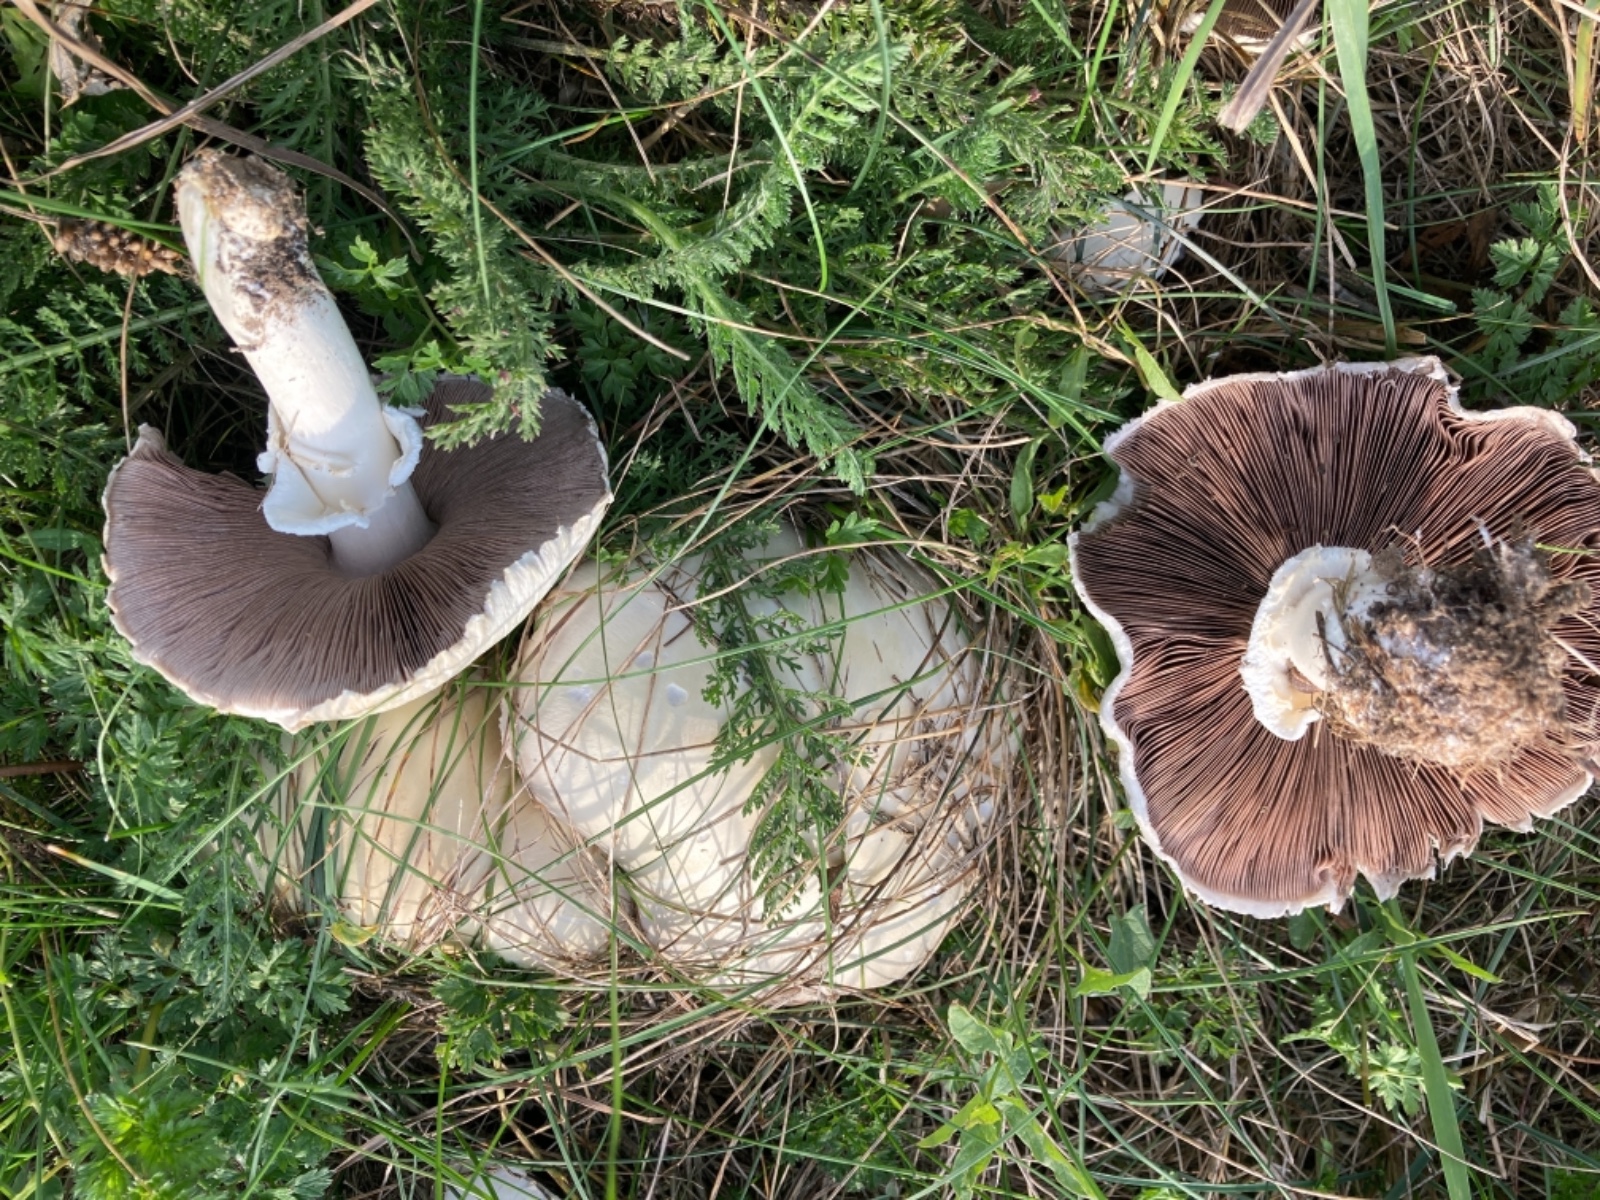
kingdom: Fungi
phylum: Basidiomycota
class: Agaricomycetes
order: Agaricales
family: Agaricaceae
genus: Agaricus
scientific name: Agaricus arvensis
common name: ager-champignon
